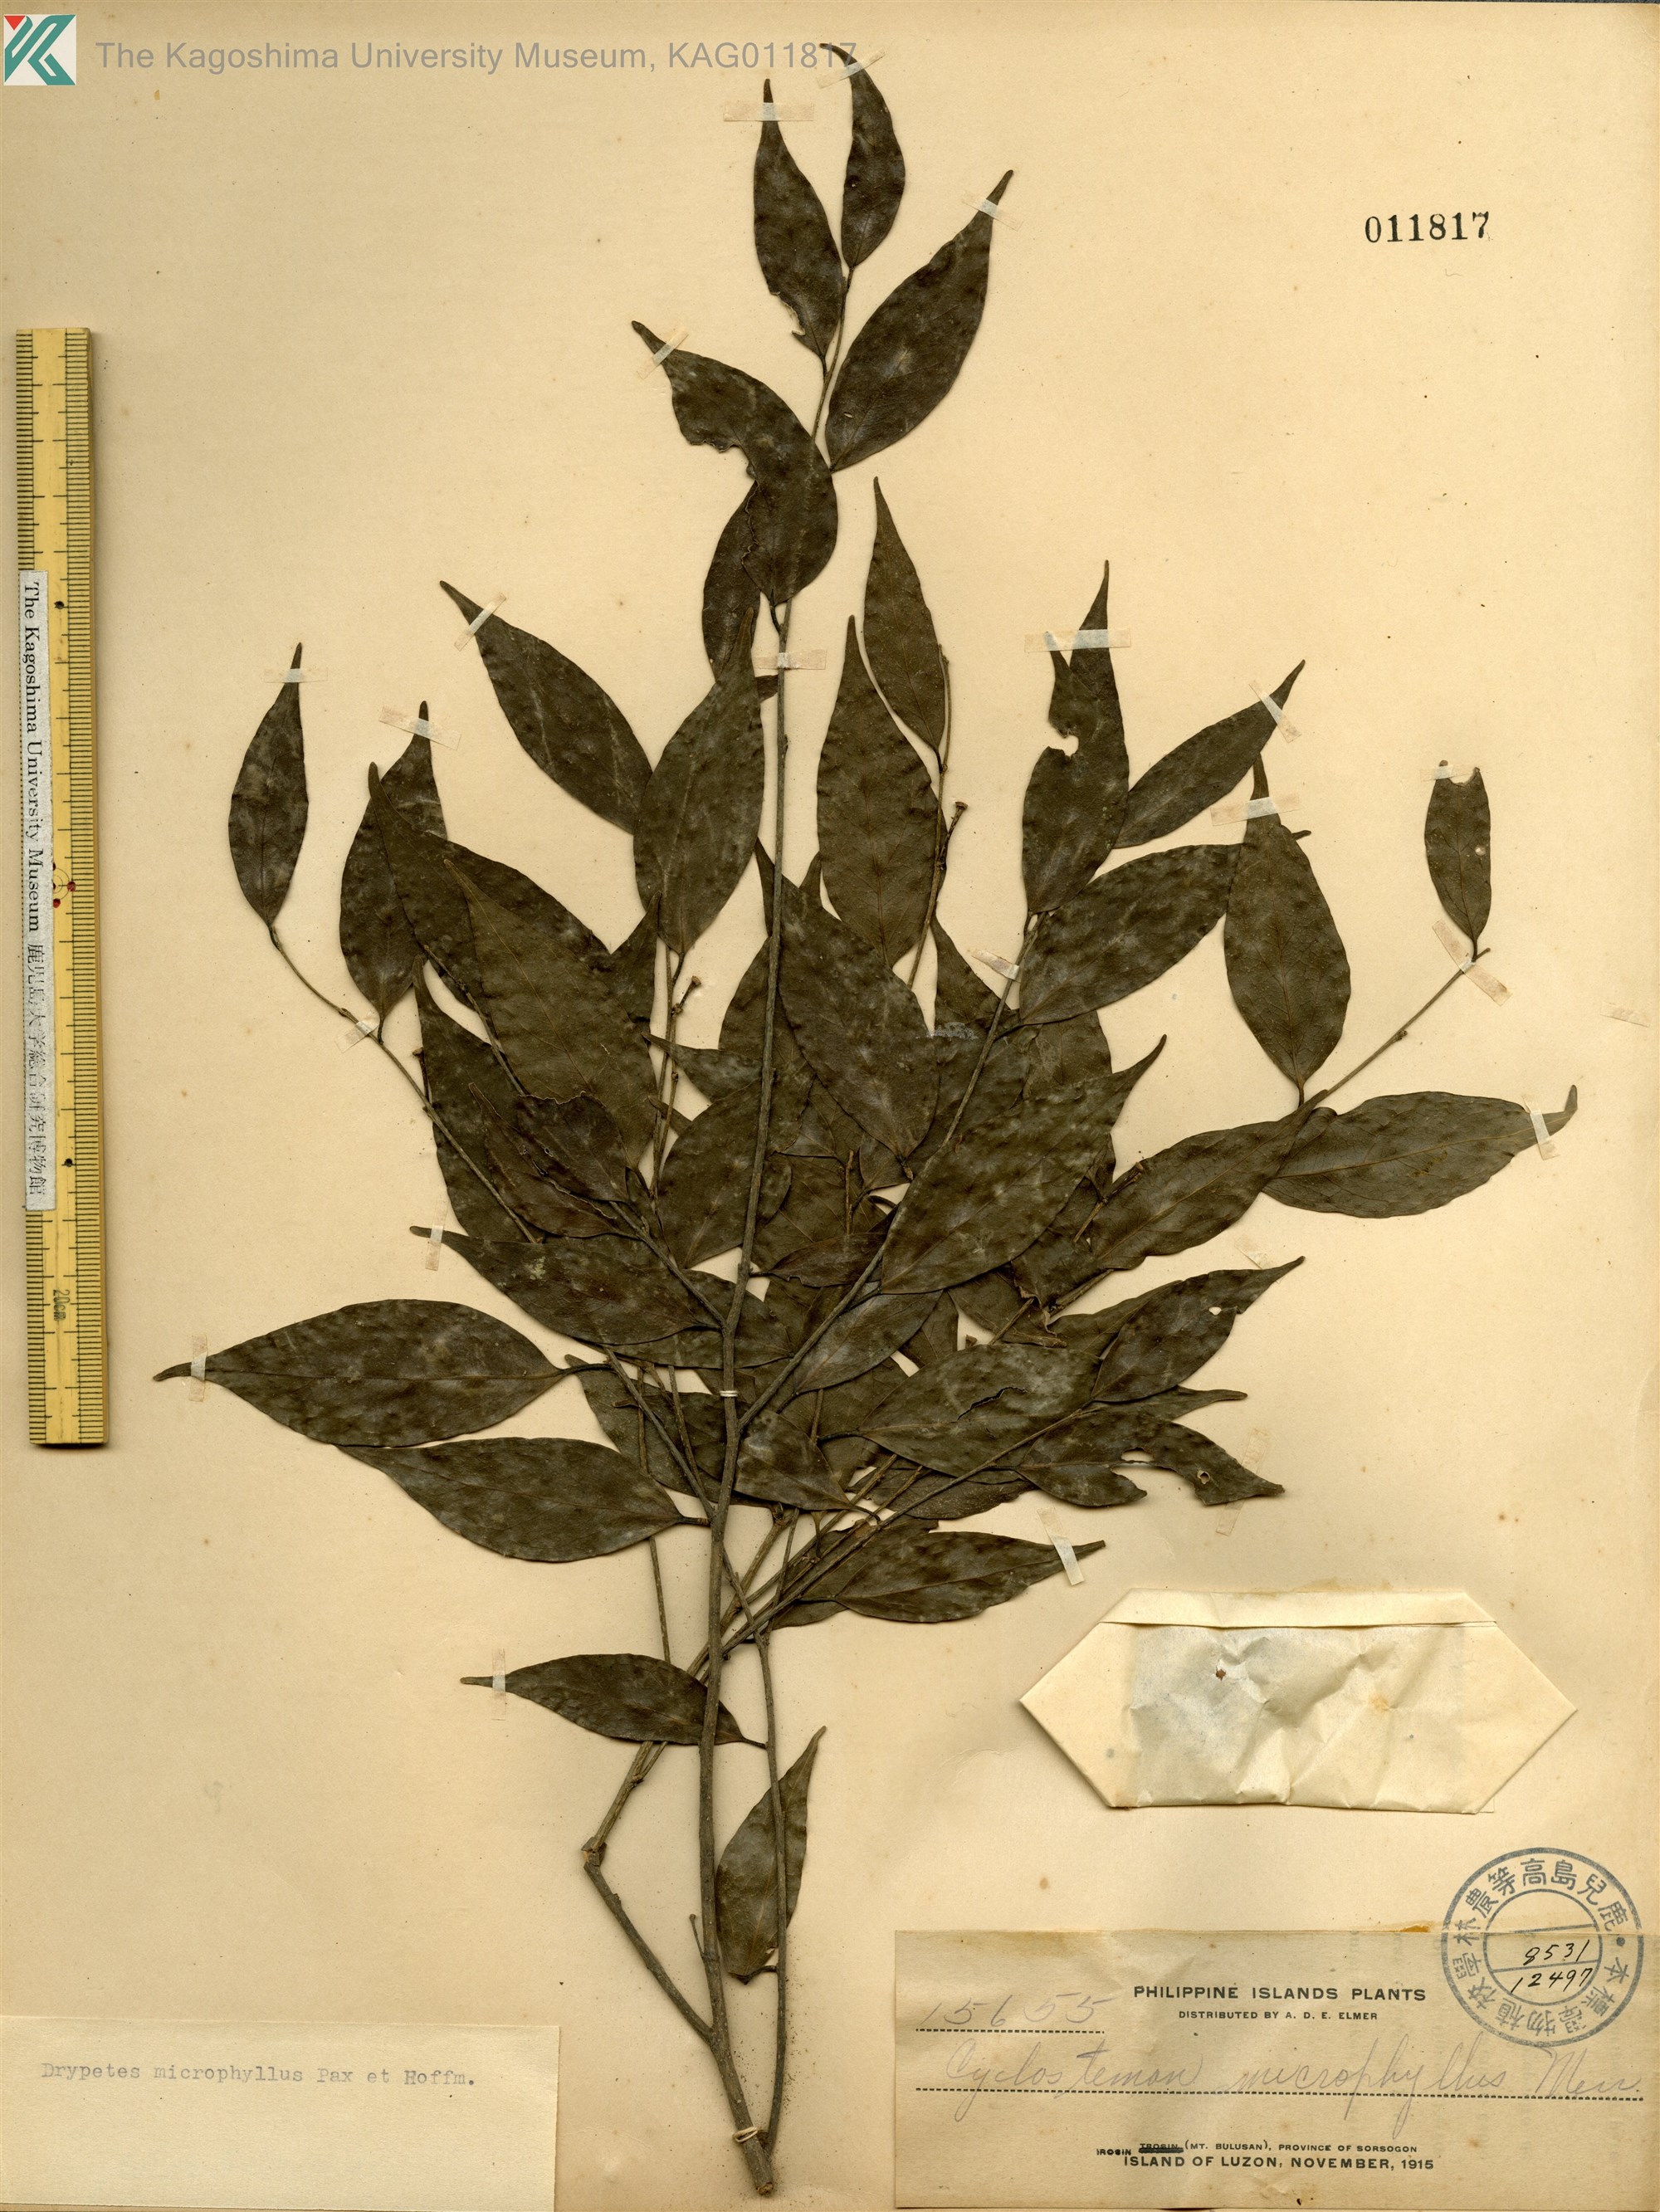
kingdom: Plantae
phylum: Tracheophyta
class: Magnoliopsida
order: Malpighiales
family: Putranjivaceae
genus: Drypetes
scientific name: Drypetes microphylla
